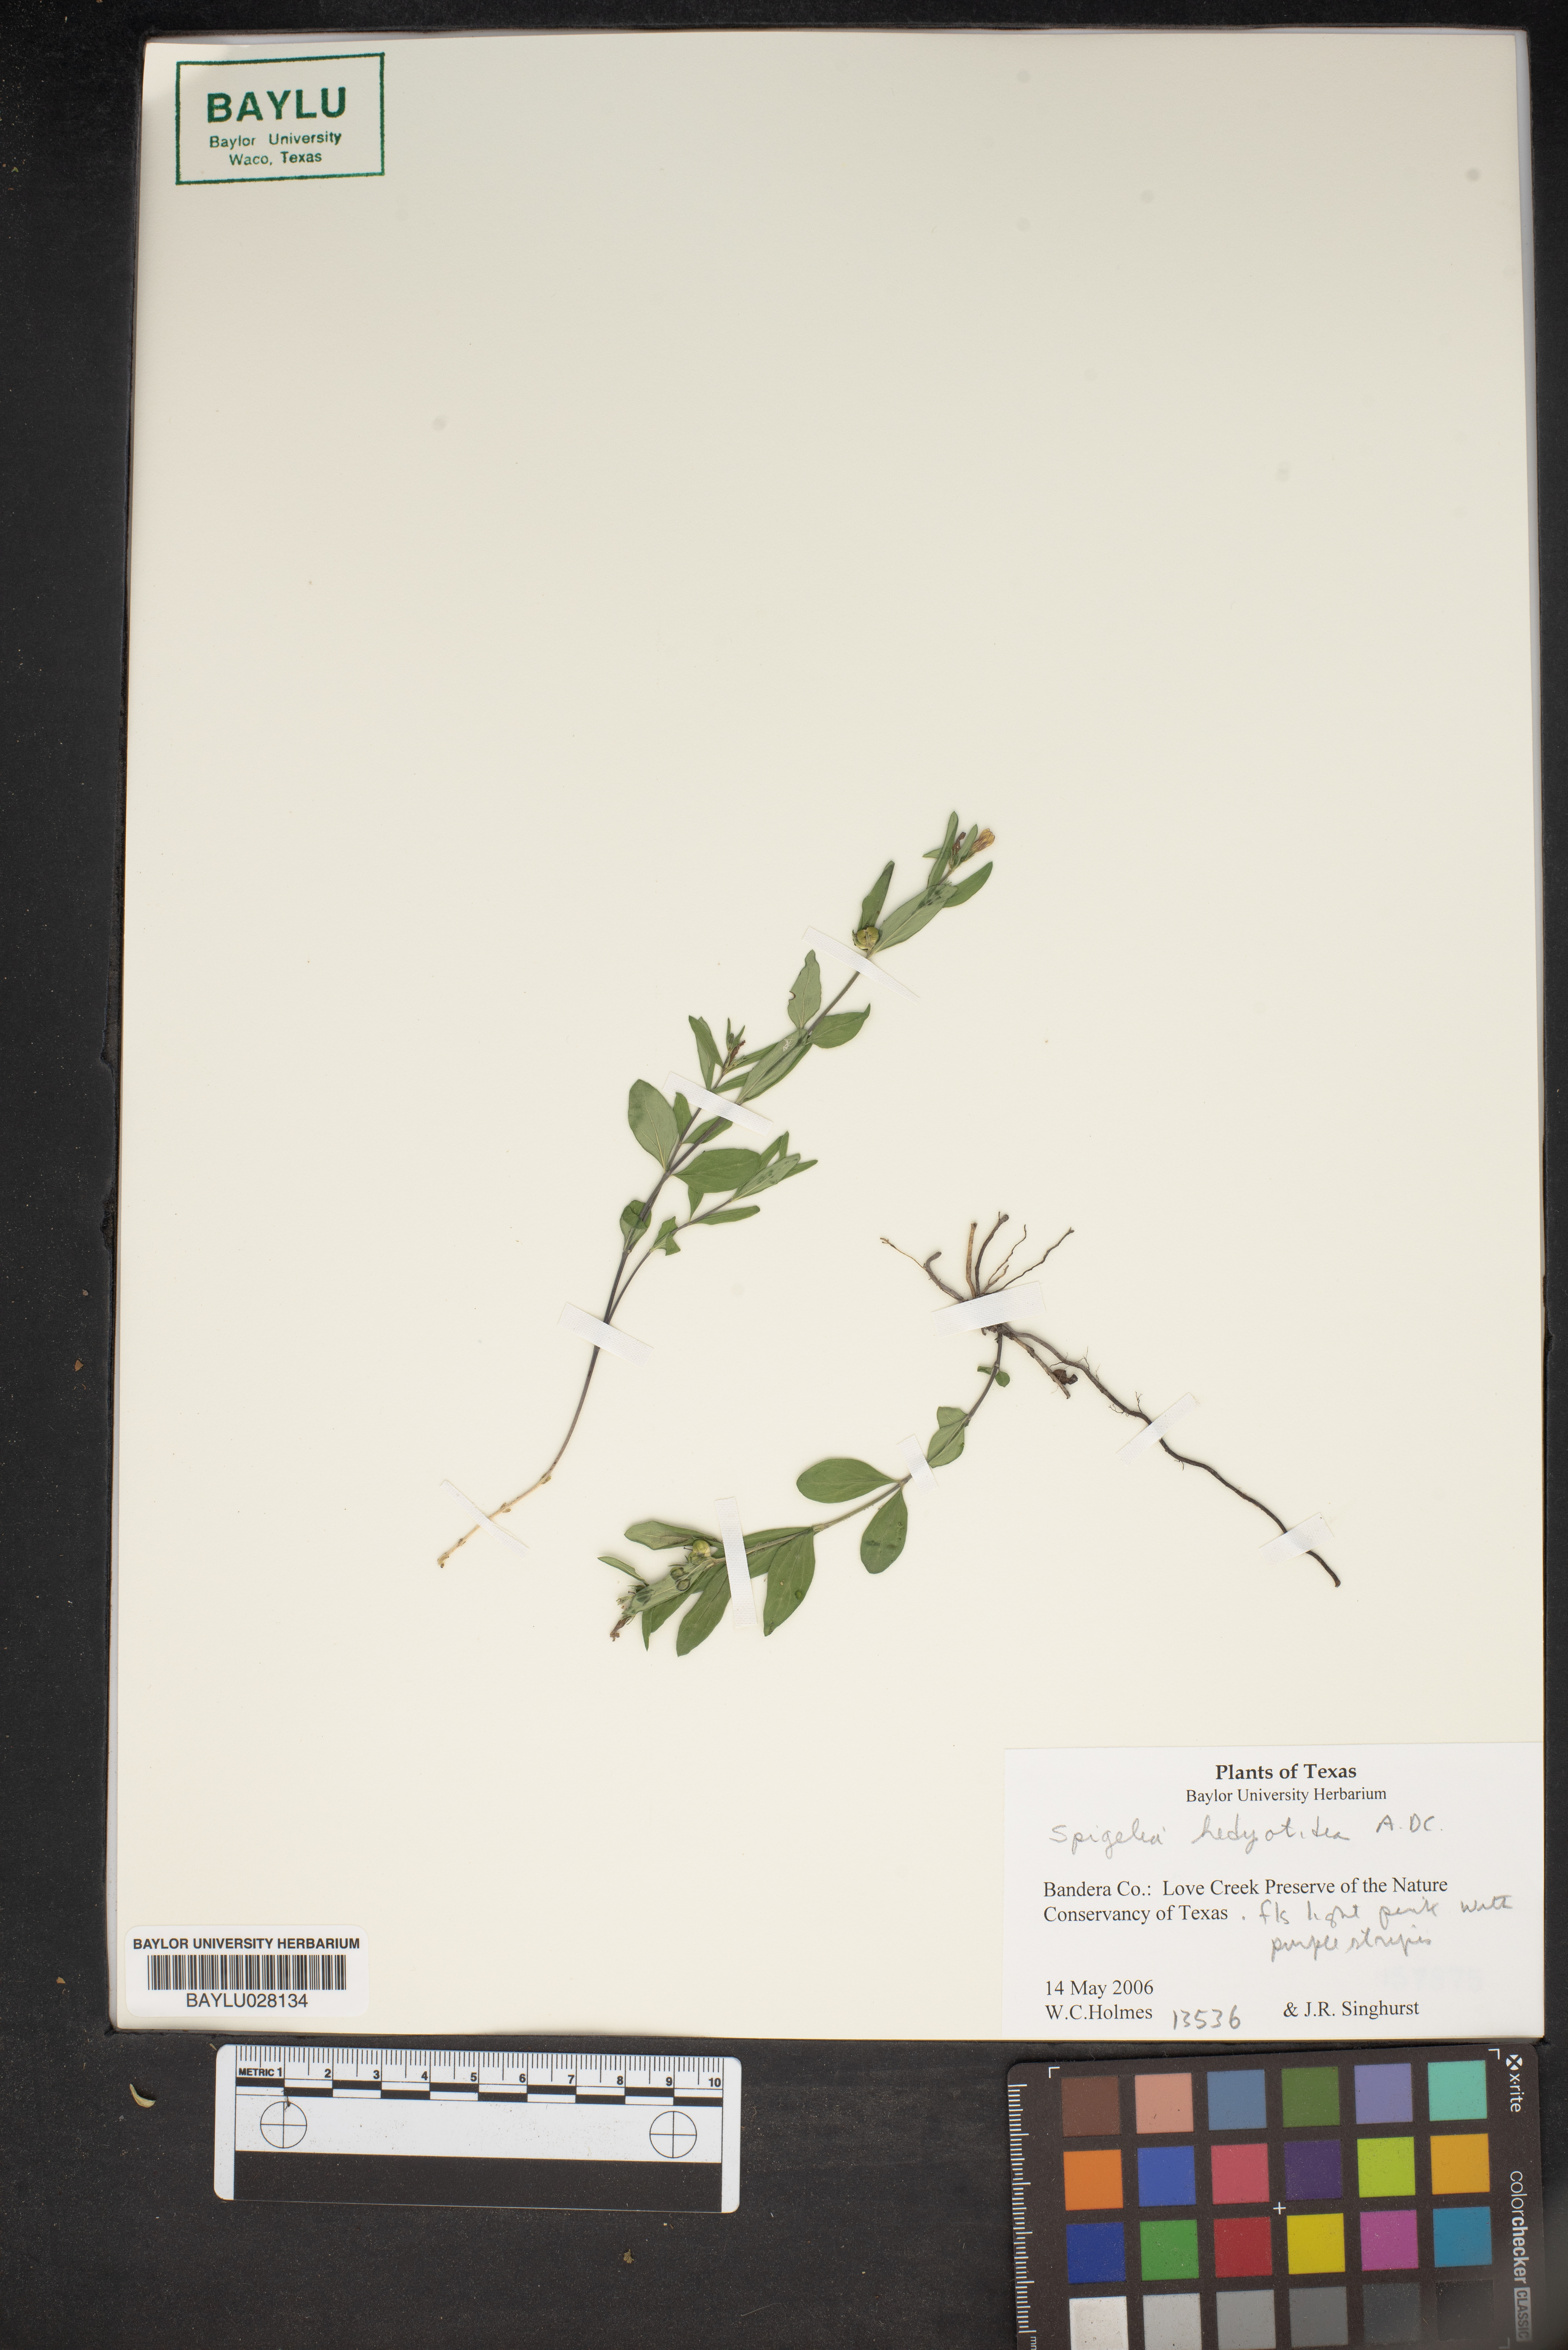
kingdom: Plantae
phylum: Tracheophyta
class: Magnoliopsida
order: Gentianales
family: Loganiaceae
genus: Spigelia
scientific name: Spigelia hedyotidea
